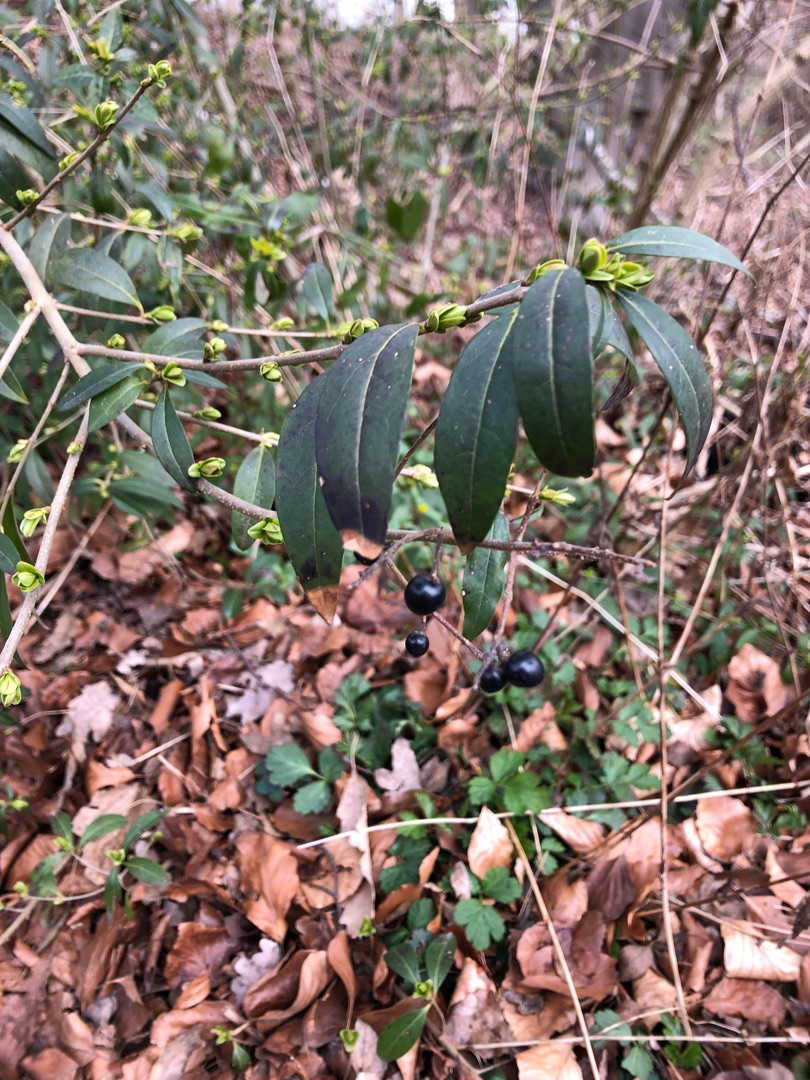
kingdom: Plantae
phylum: Tracheophyta
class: Magnoliopsida
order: Lamiales
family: Oleaceae
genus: Ligustrum
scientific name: Ligustrum vulgare
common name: Liguster
